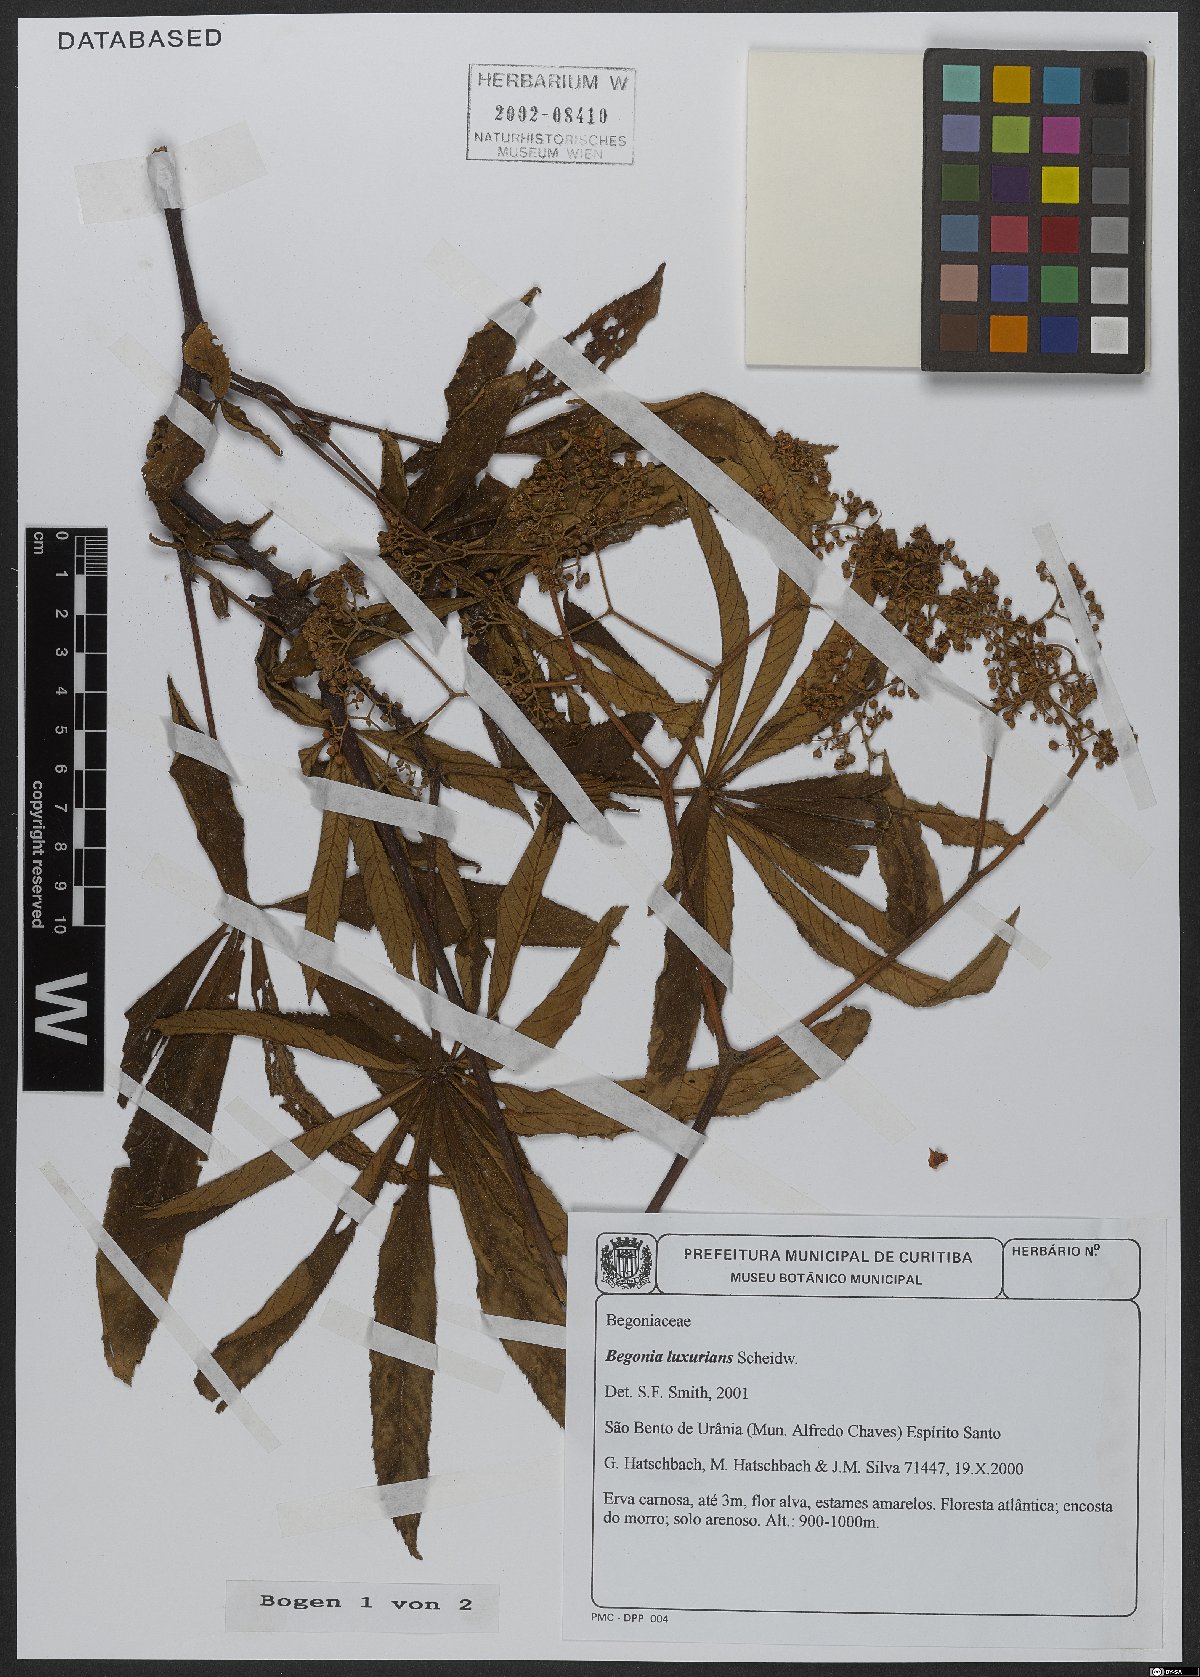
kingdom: Plantae
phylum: Tracheophyta
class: Magnoliopsida
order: Cucurbitales
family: Begoniaceae
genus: Begonia
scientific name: Begonia luxurians
